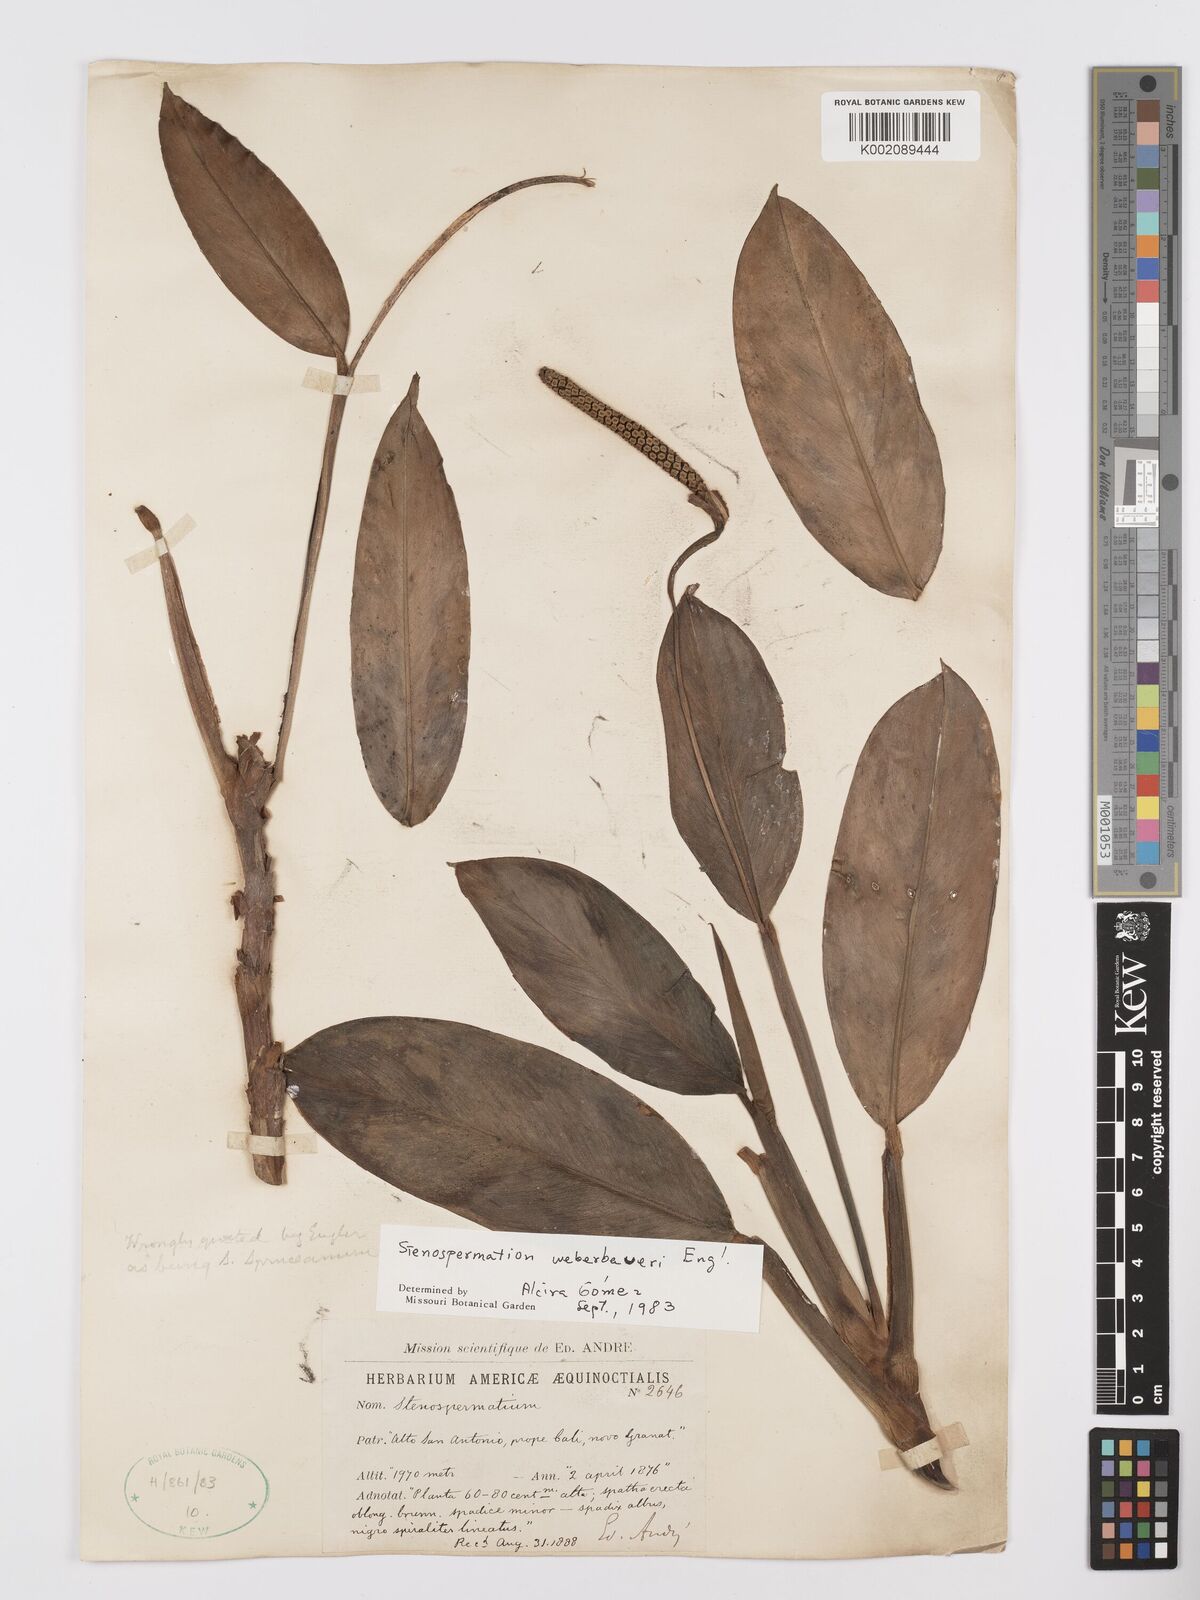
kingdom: Plantae
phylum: Tracheophyta
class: Liliopsida
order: Alismatales
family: Araceae
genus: Stenospermation
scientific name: Stenospermation weberbaueri
